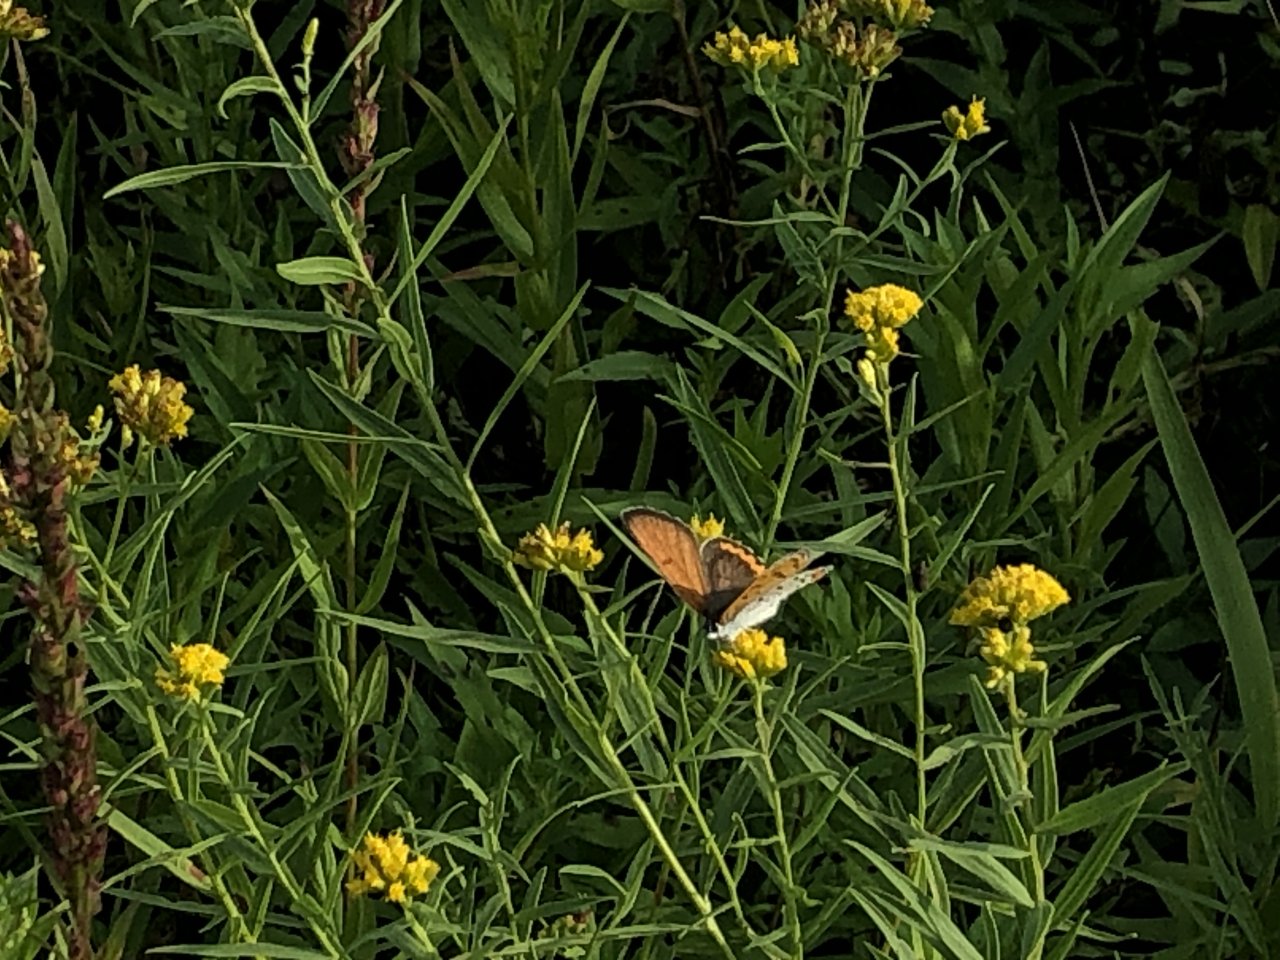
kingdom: Animalia
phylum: Arthropoda
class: Insecta
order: Lepidoptera
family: Sesiidae
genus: Sesia
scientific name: Sesia Lycaena hyllus
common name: Bronze Copper
